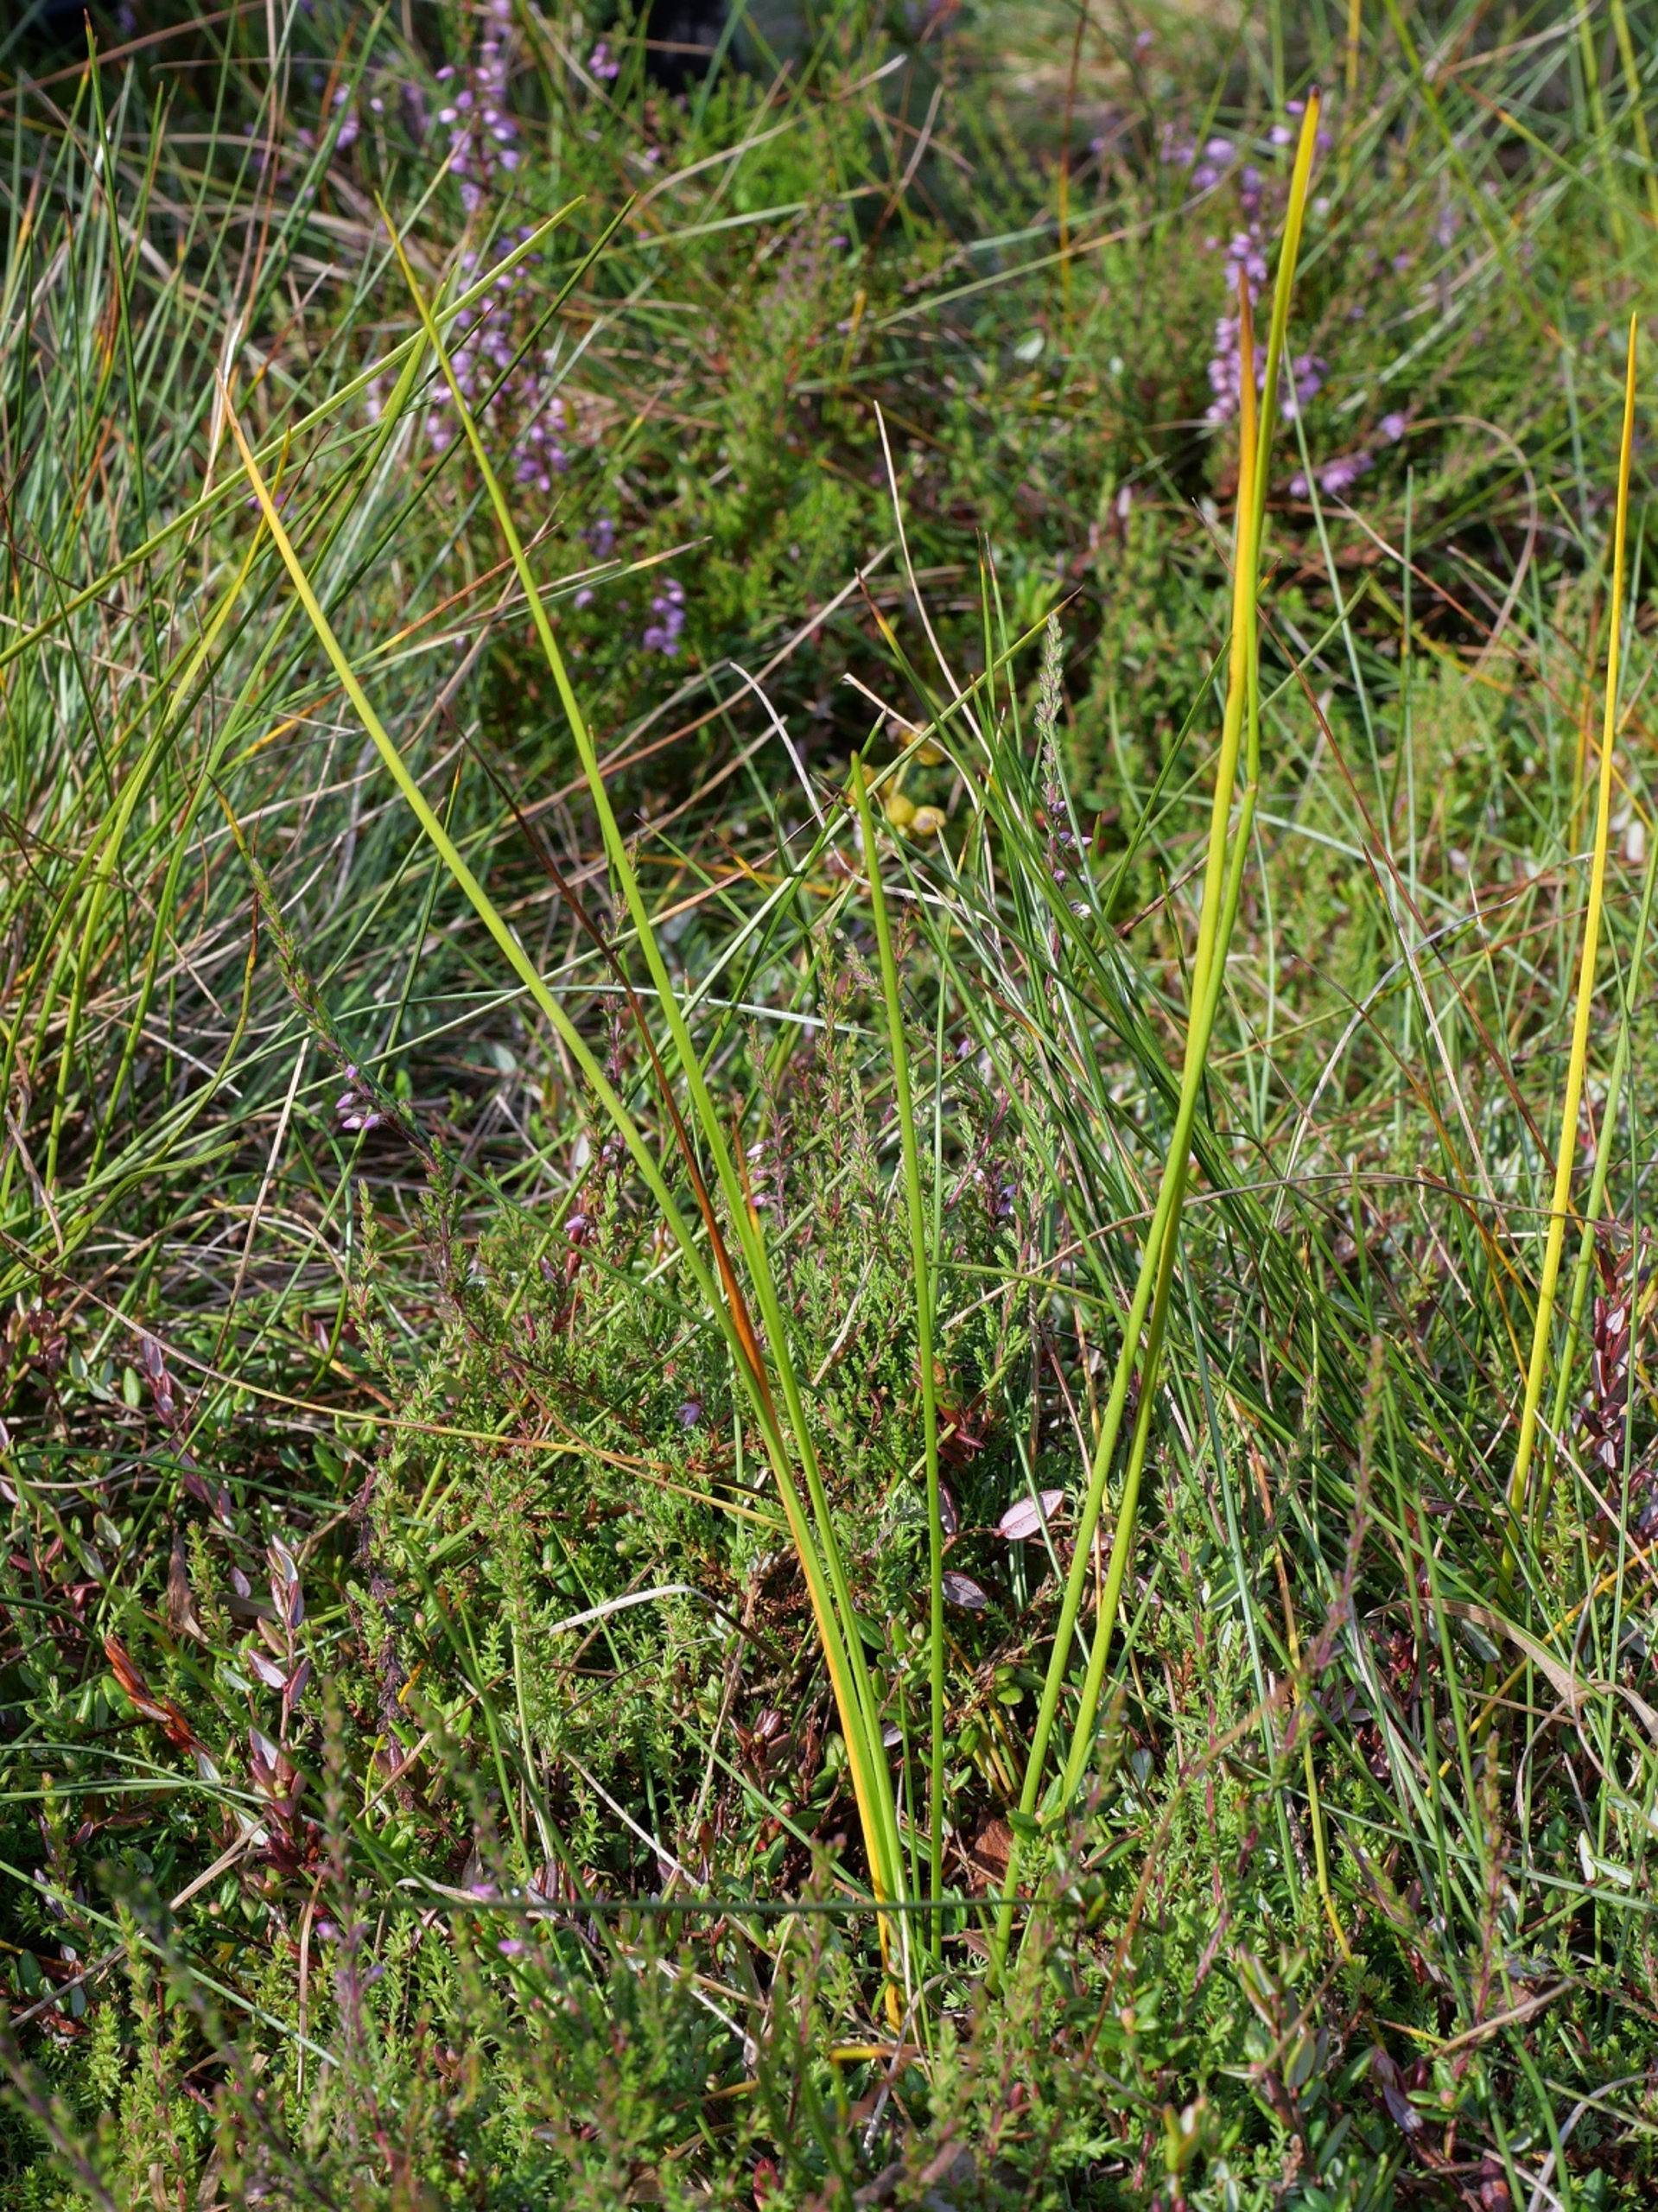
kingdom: Plantae
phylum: Tracheophyta
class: Liliopsida
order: Alismatales
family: Scheuchzeriaceae
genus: Scheuchzeria
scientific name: Scheuchzeria palustris
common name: Blomstersiv
